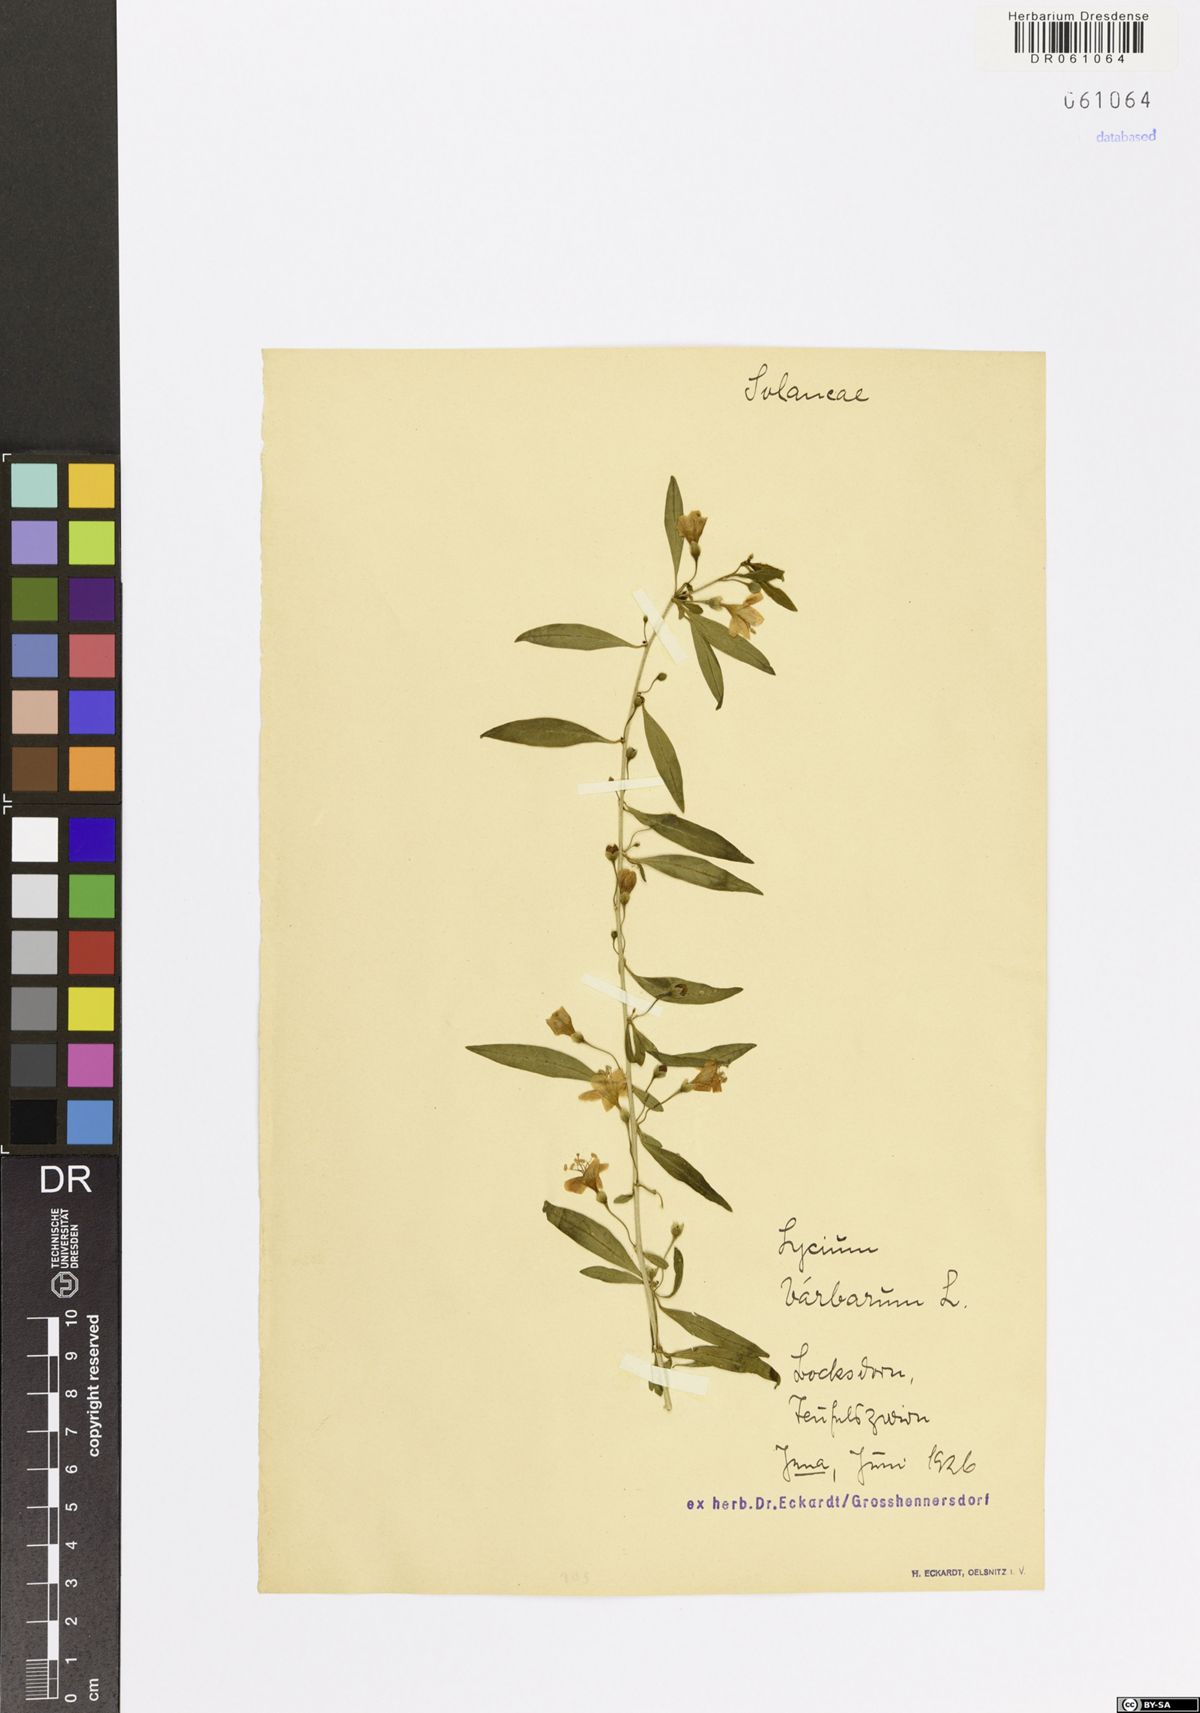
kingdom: Plantae
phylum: Tracheophyta
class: Magnoliopsida
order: Solanales
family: Solanaceae
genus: Lycium
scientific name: Lycium barbarum
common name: Duke of argyll's teaplant
